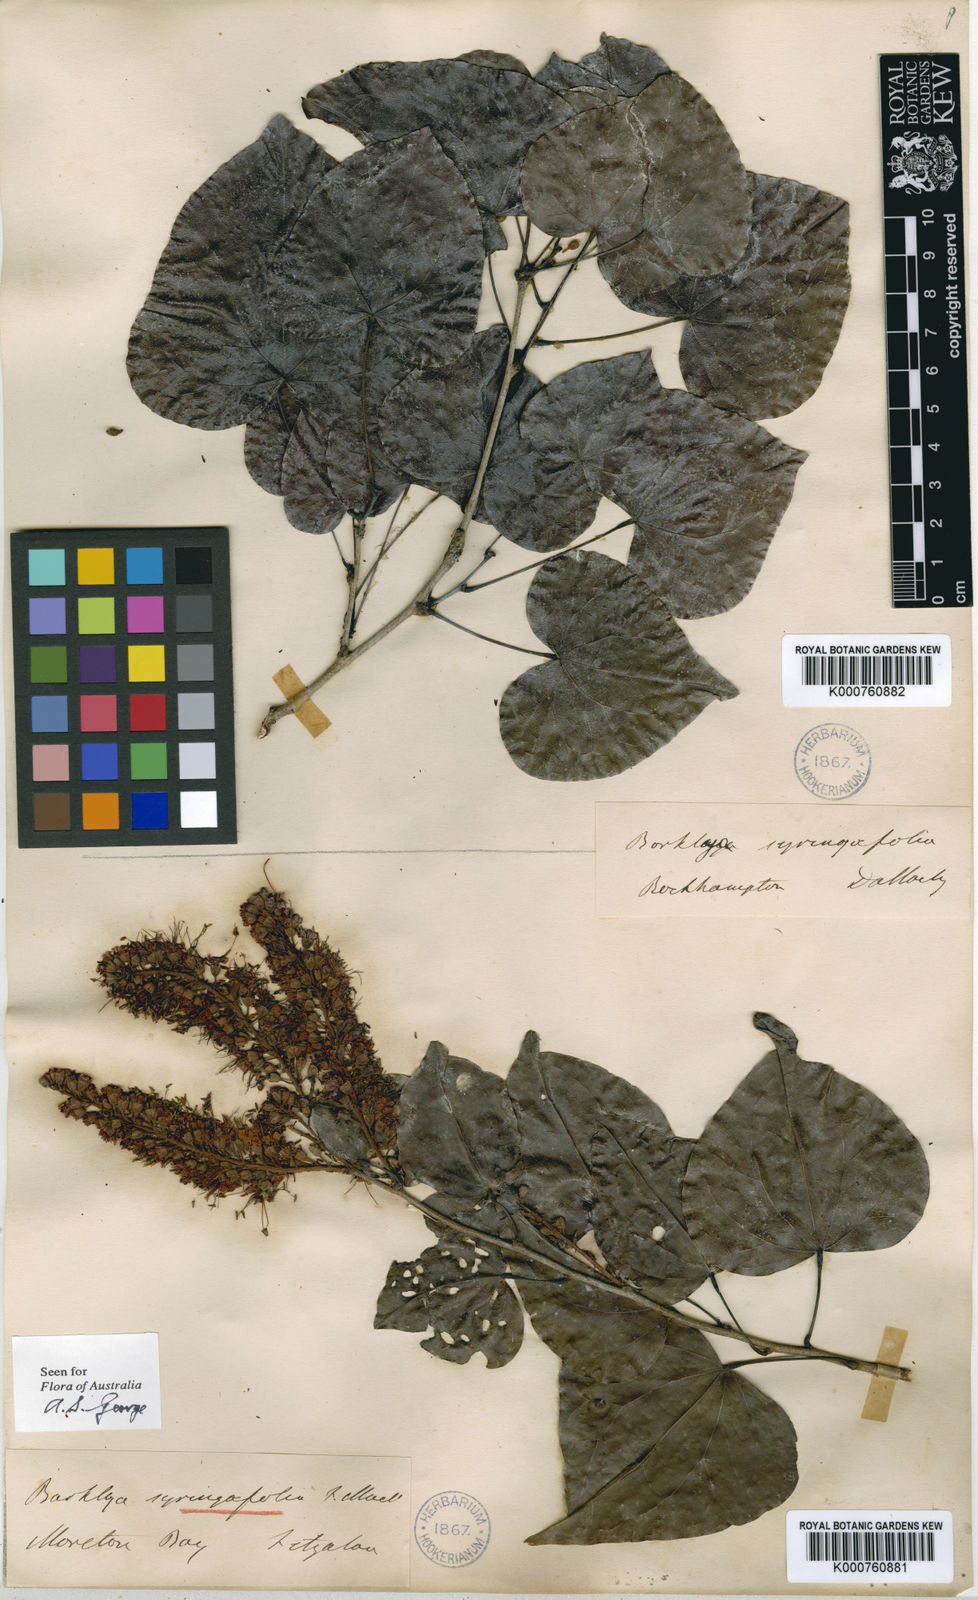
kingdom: Plantae
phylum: Tracheophyta
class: Magnoliopsida
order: Fabales
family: Fabaceae
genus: Barklya
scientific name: Barklya syringifolia
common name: Crown-of-gold-tree
